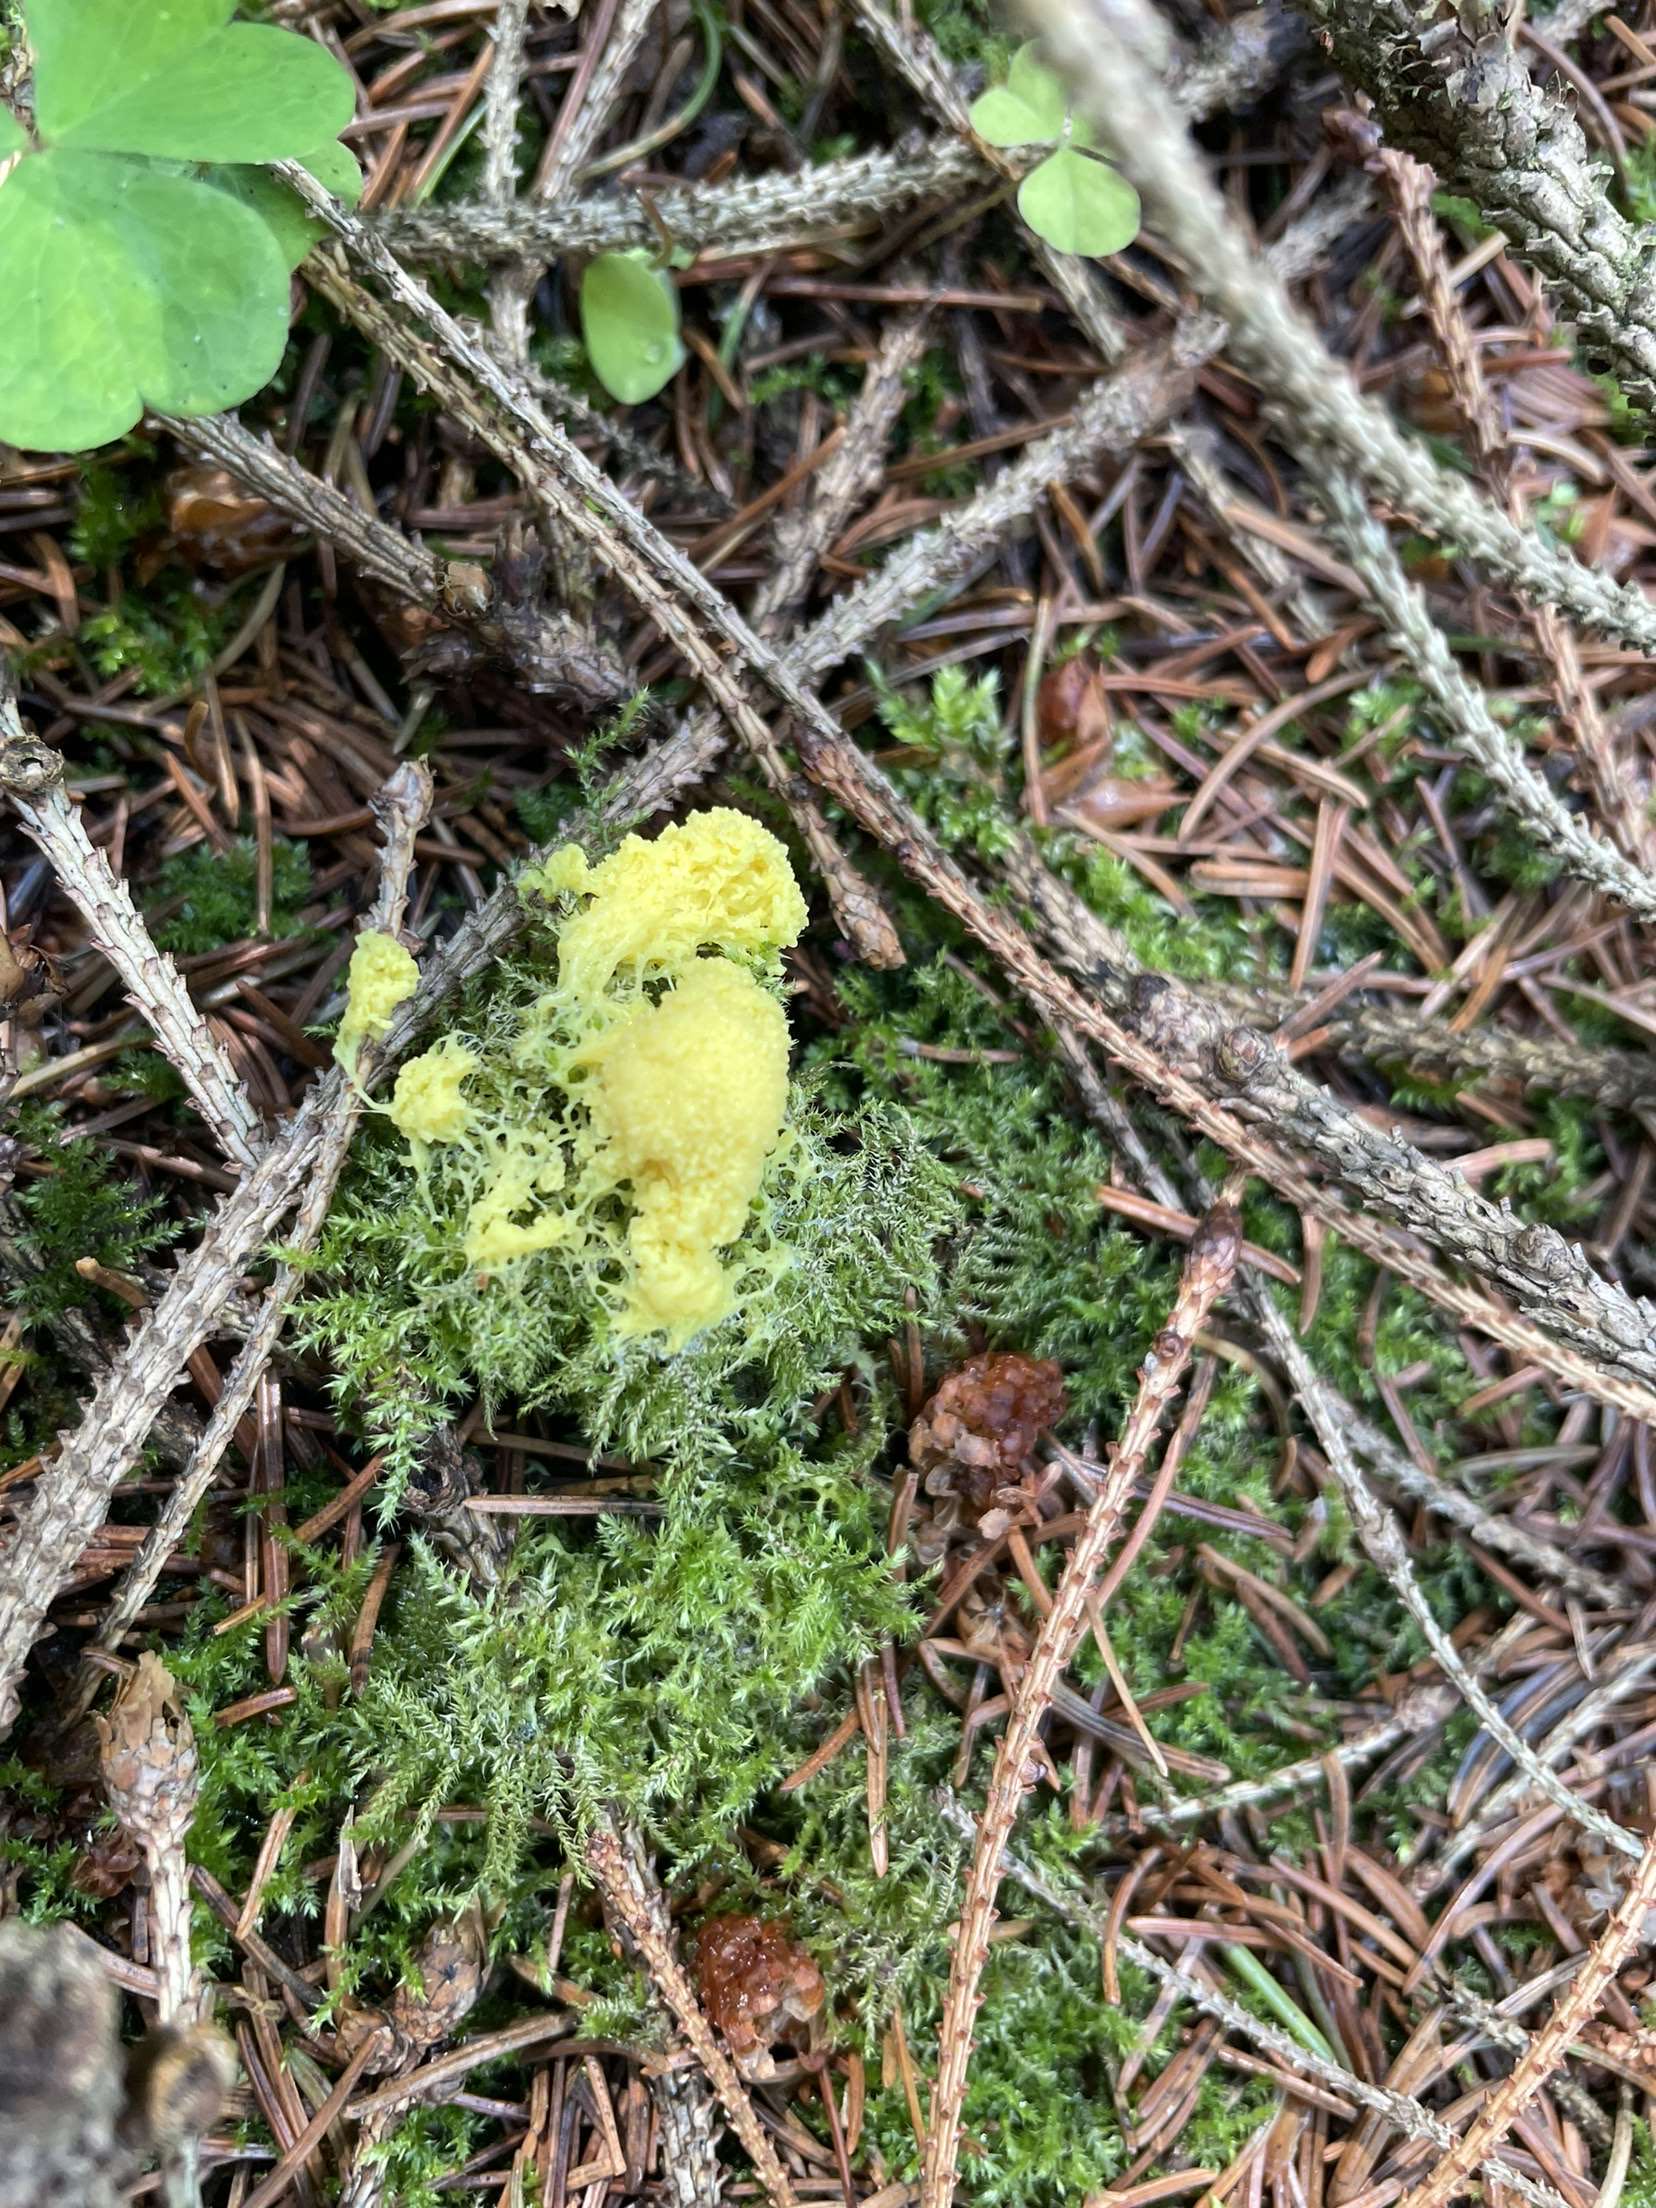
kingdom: Protozoa
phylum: Mycetozoa
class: Myxomycetes
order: Physarales
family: Physaraceae
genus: Fuligo
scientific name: Fuligo septica
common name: gul troldsmør
